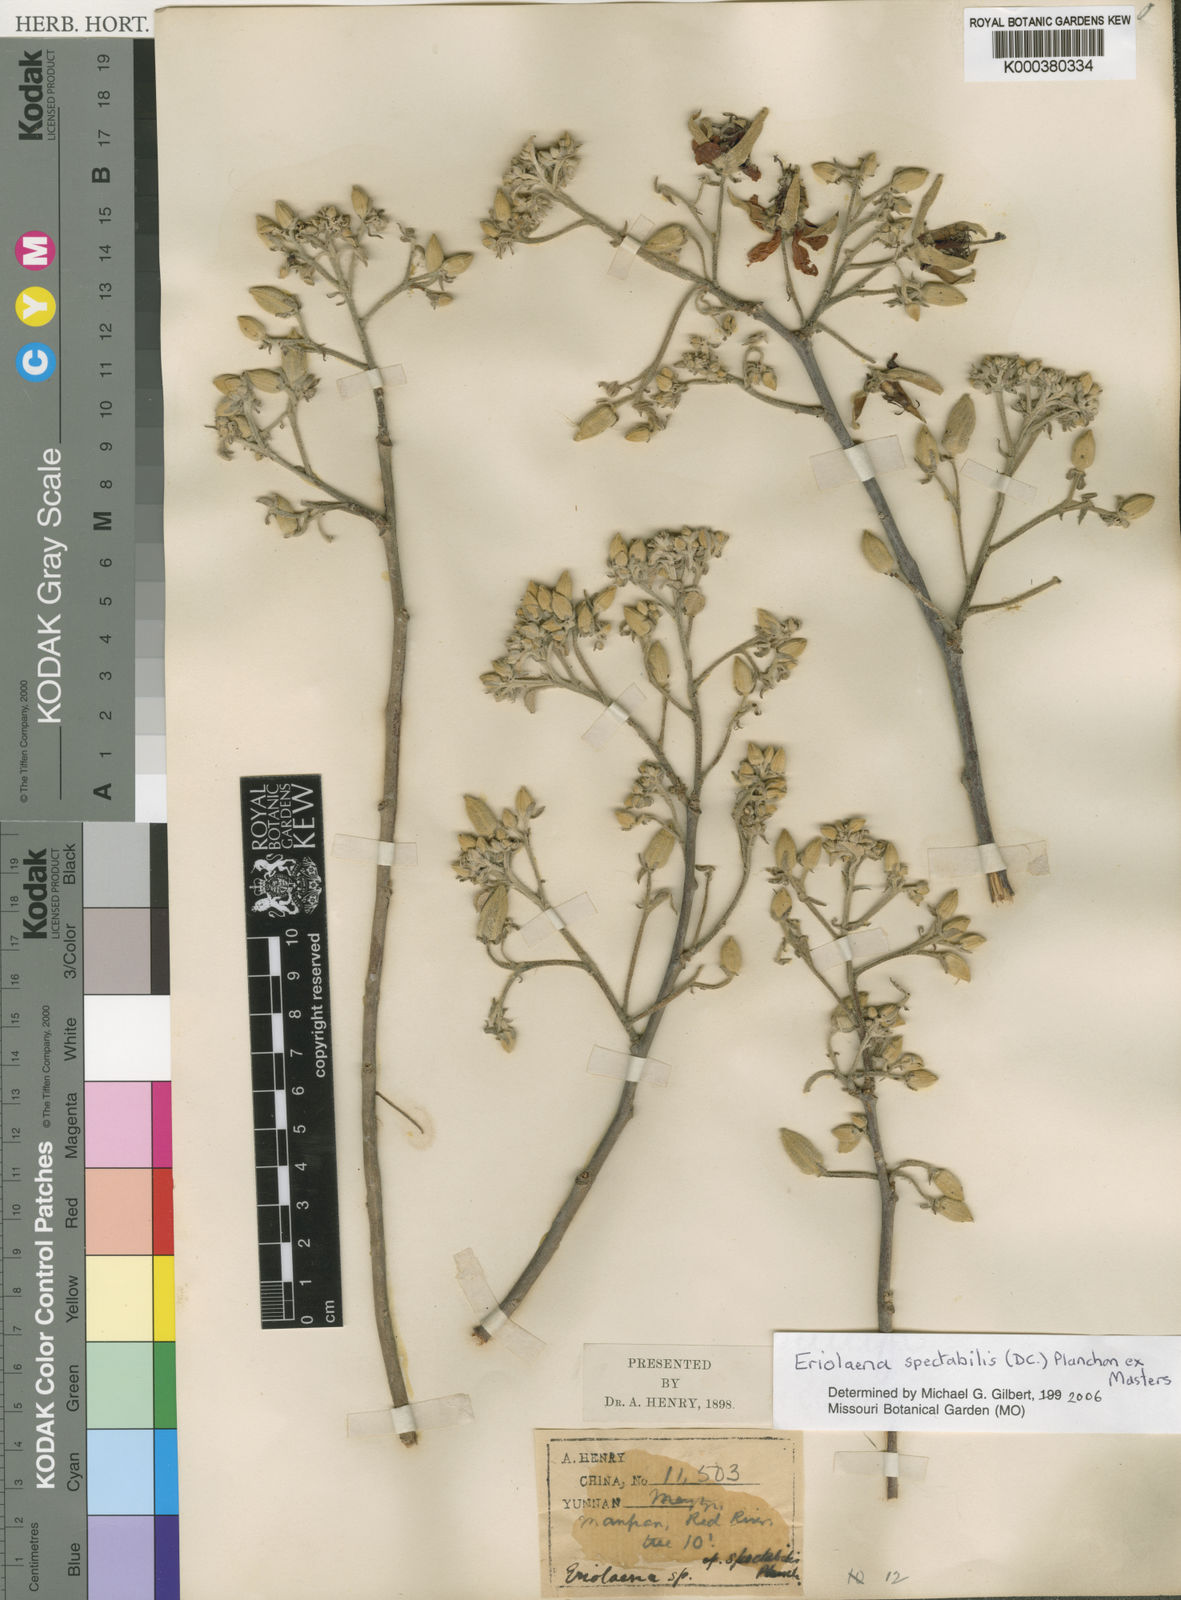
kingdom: Plantae
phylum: Tracheophyta
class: Magnoliopsida
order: Malvales
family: Malvaceae
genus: Eriolaena
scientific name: Eriolaena
